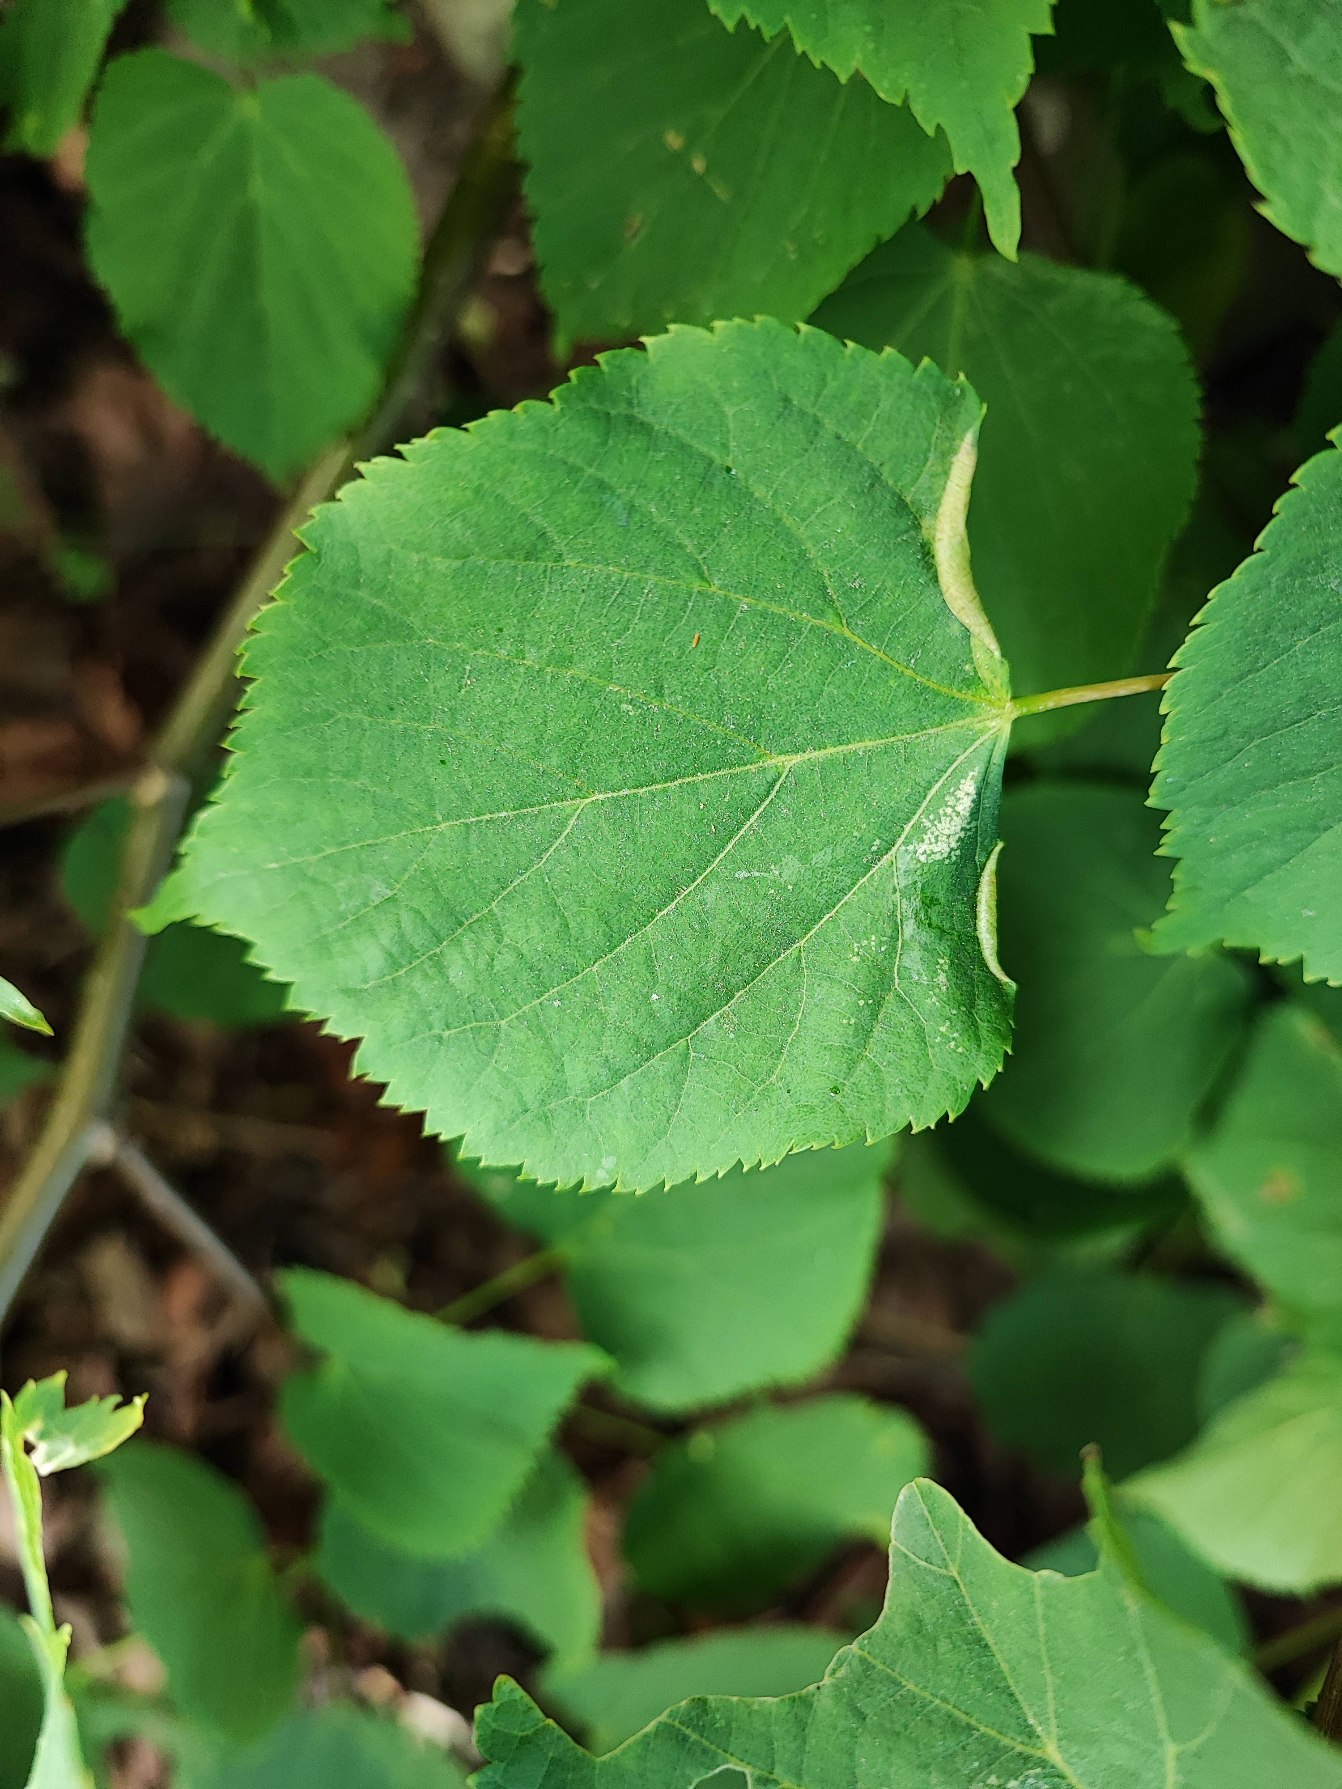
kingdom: Animalia
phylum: Arthropoda
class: Insecta
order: Diptera
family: Cecidomyiidae
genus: Dasineura
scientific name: Dasineura tiliae
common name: Linderullegalmyg
